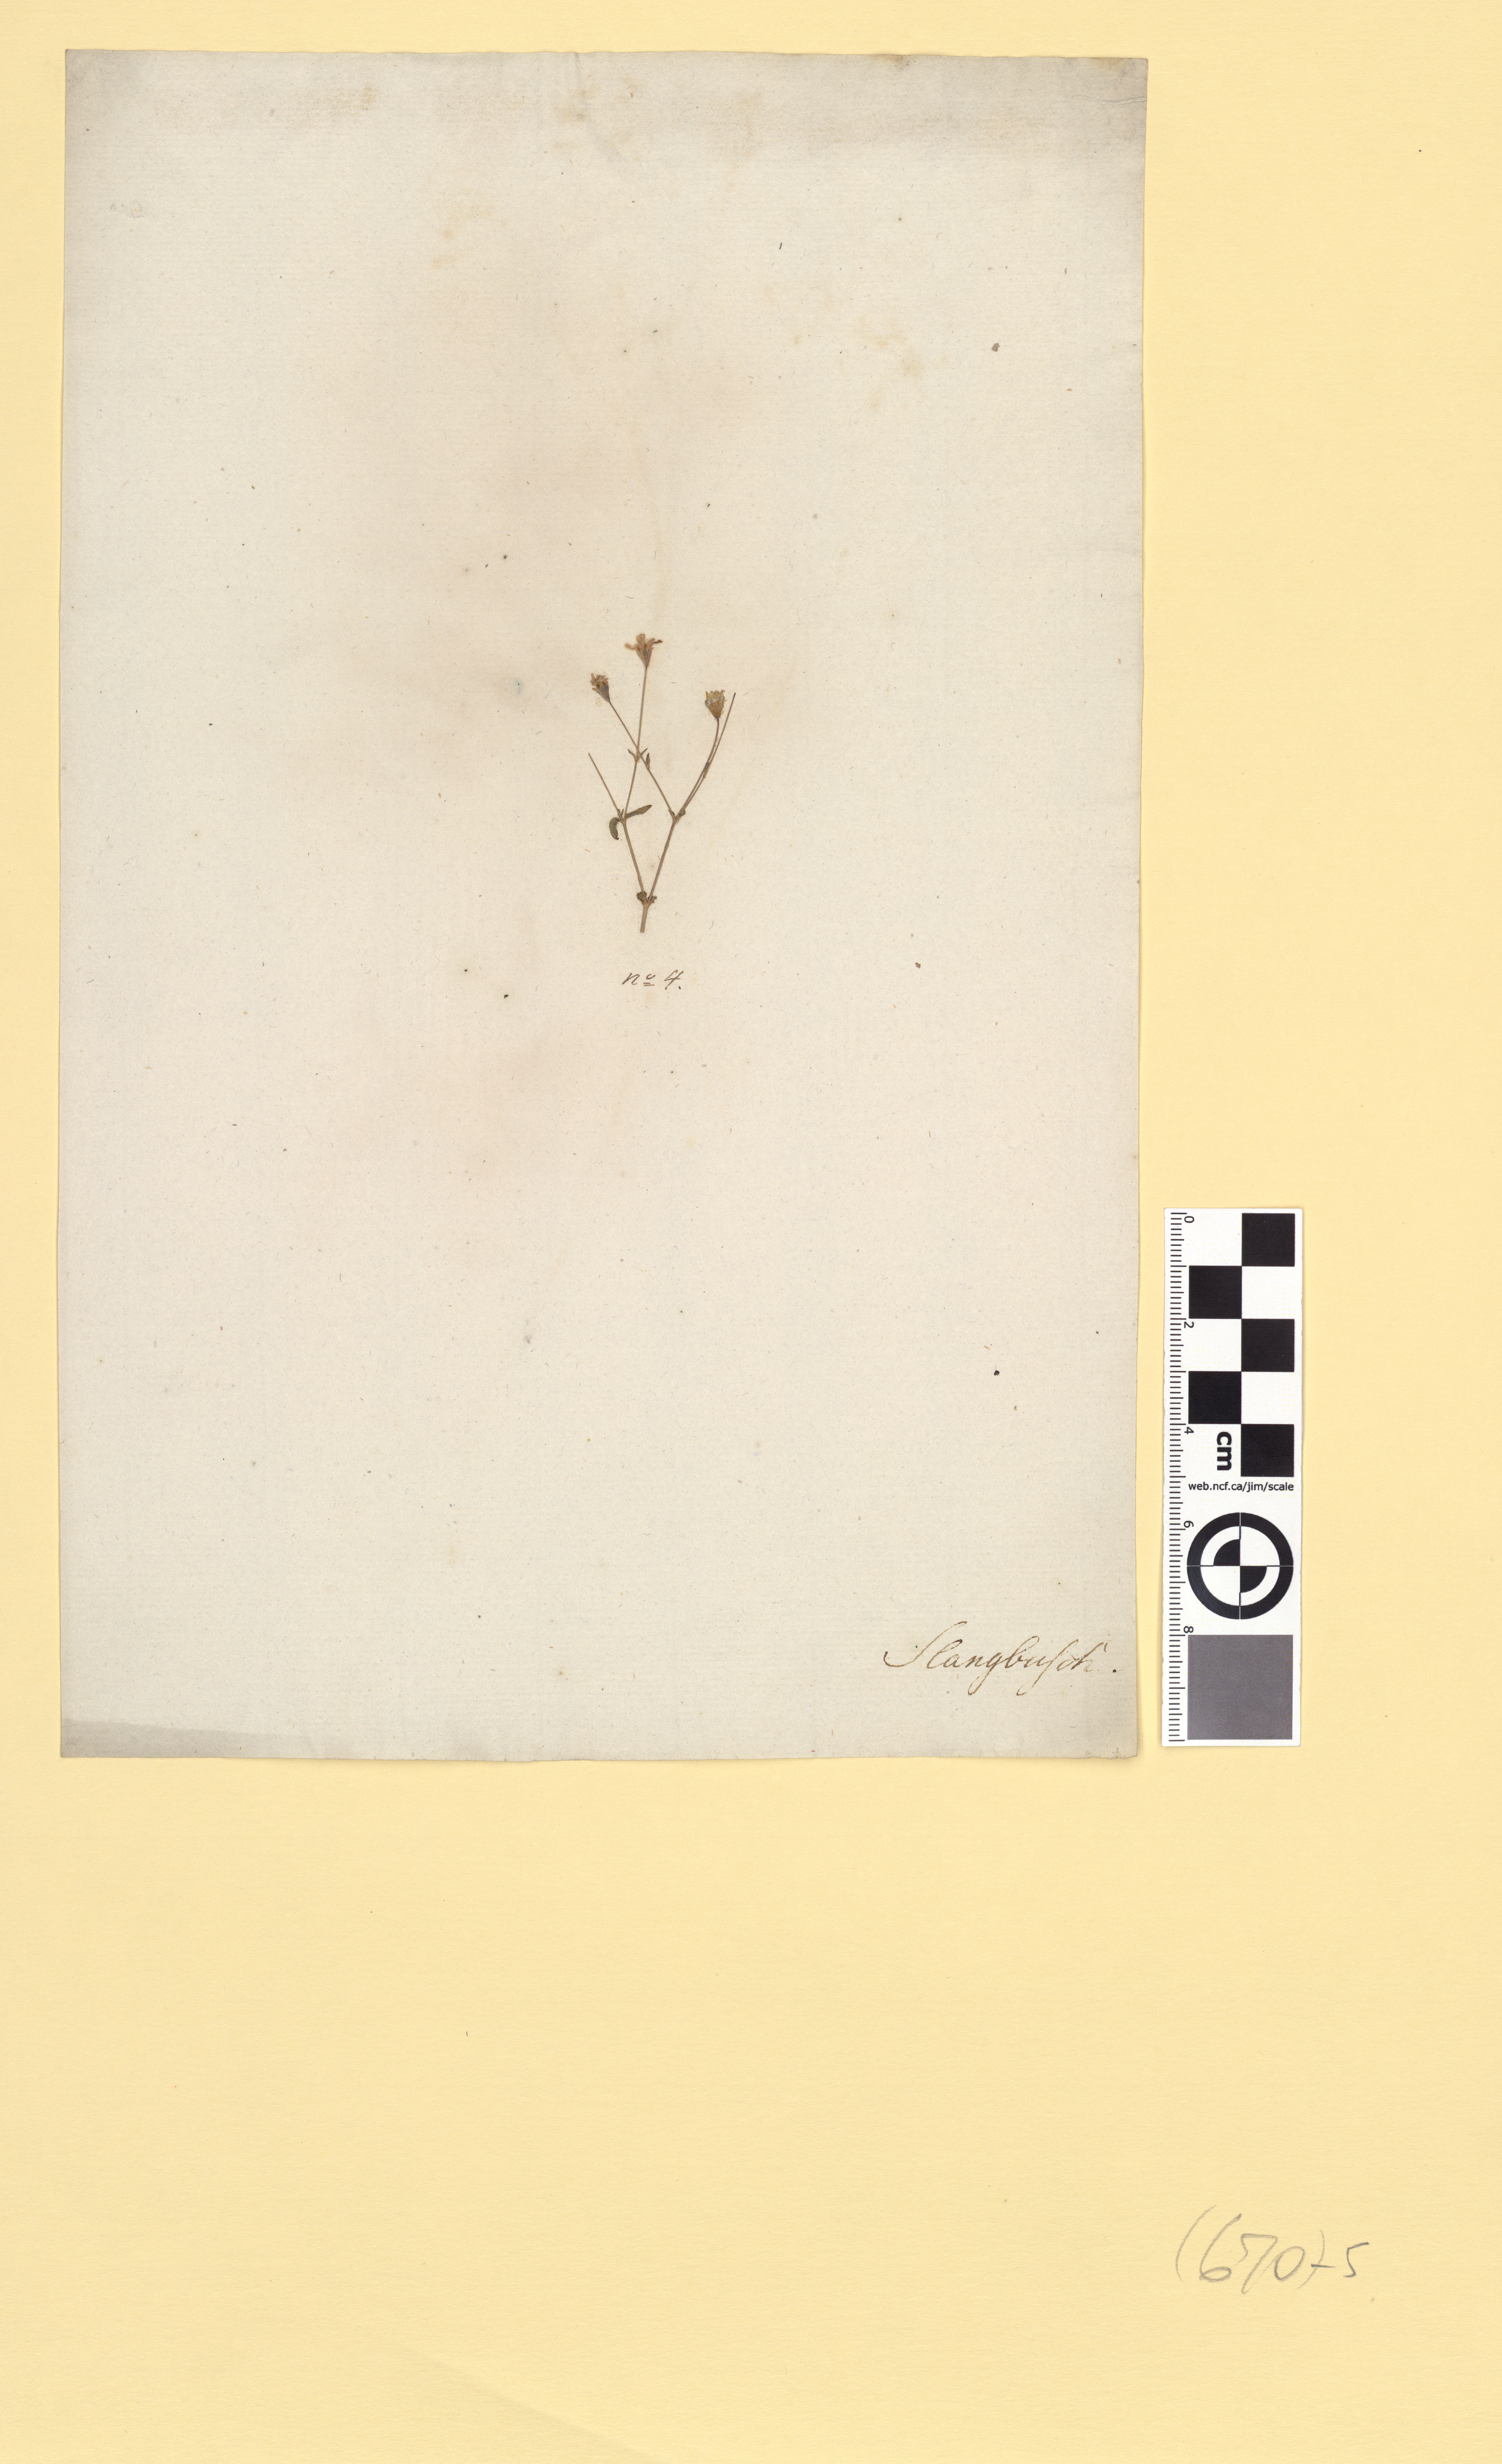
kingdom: Plantae
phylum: Tracheophyta
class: Magnoliopsida
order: Caryophyllales
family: Caryophyllaceae
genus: Atocion
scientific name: Atocion rupestre
